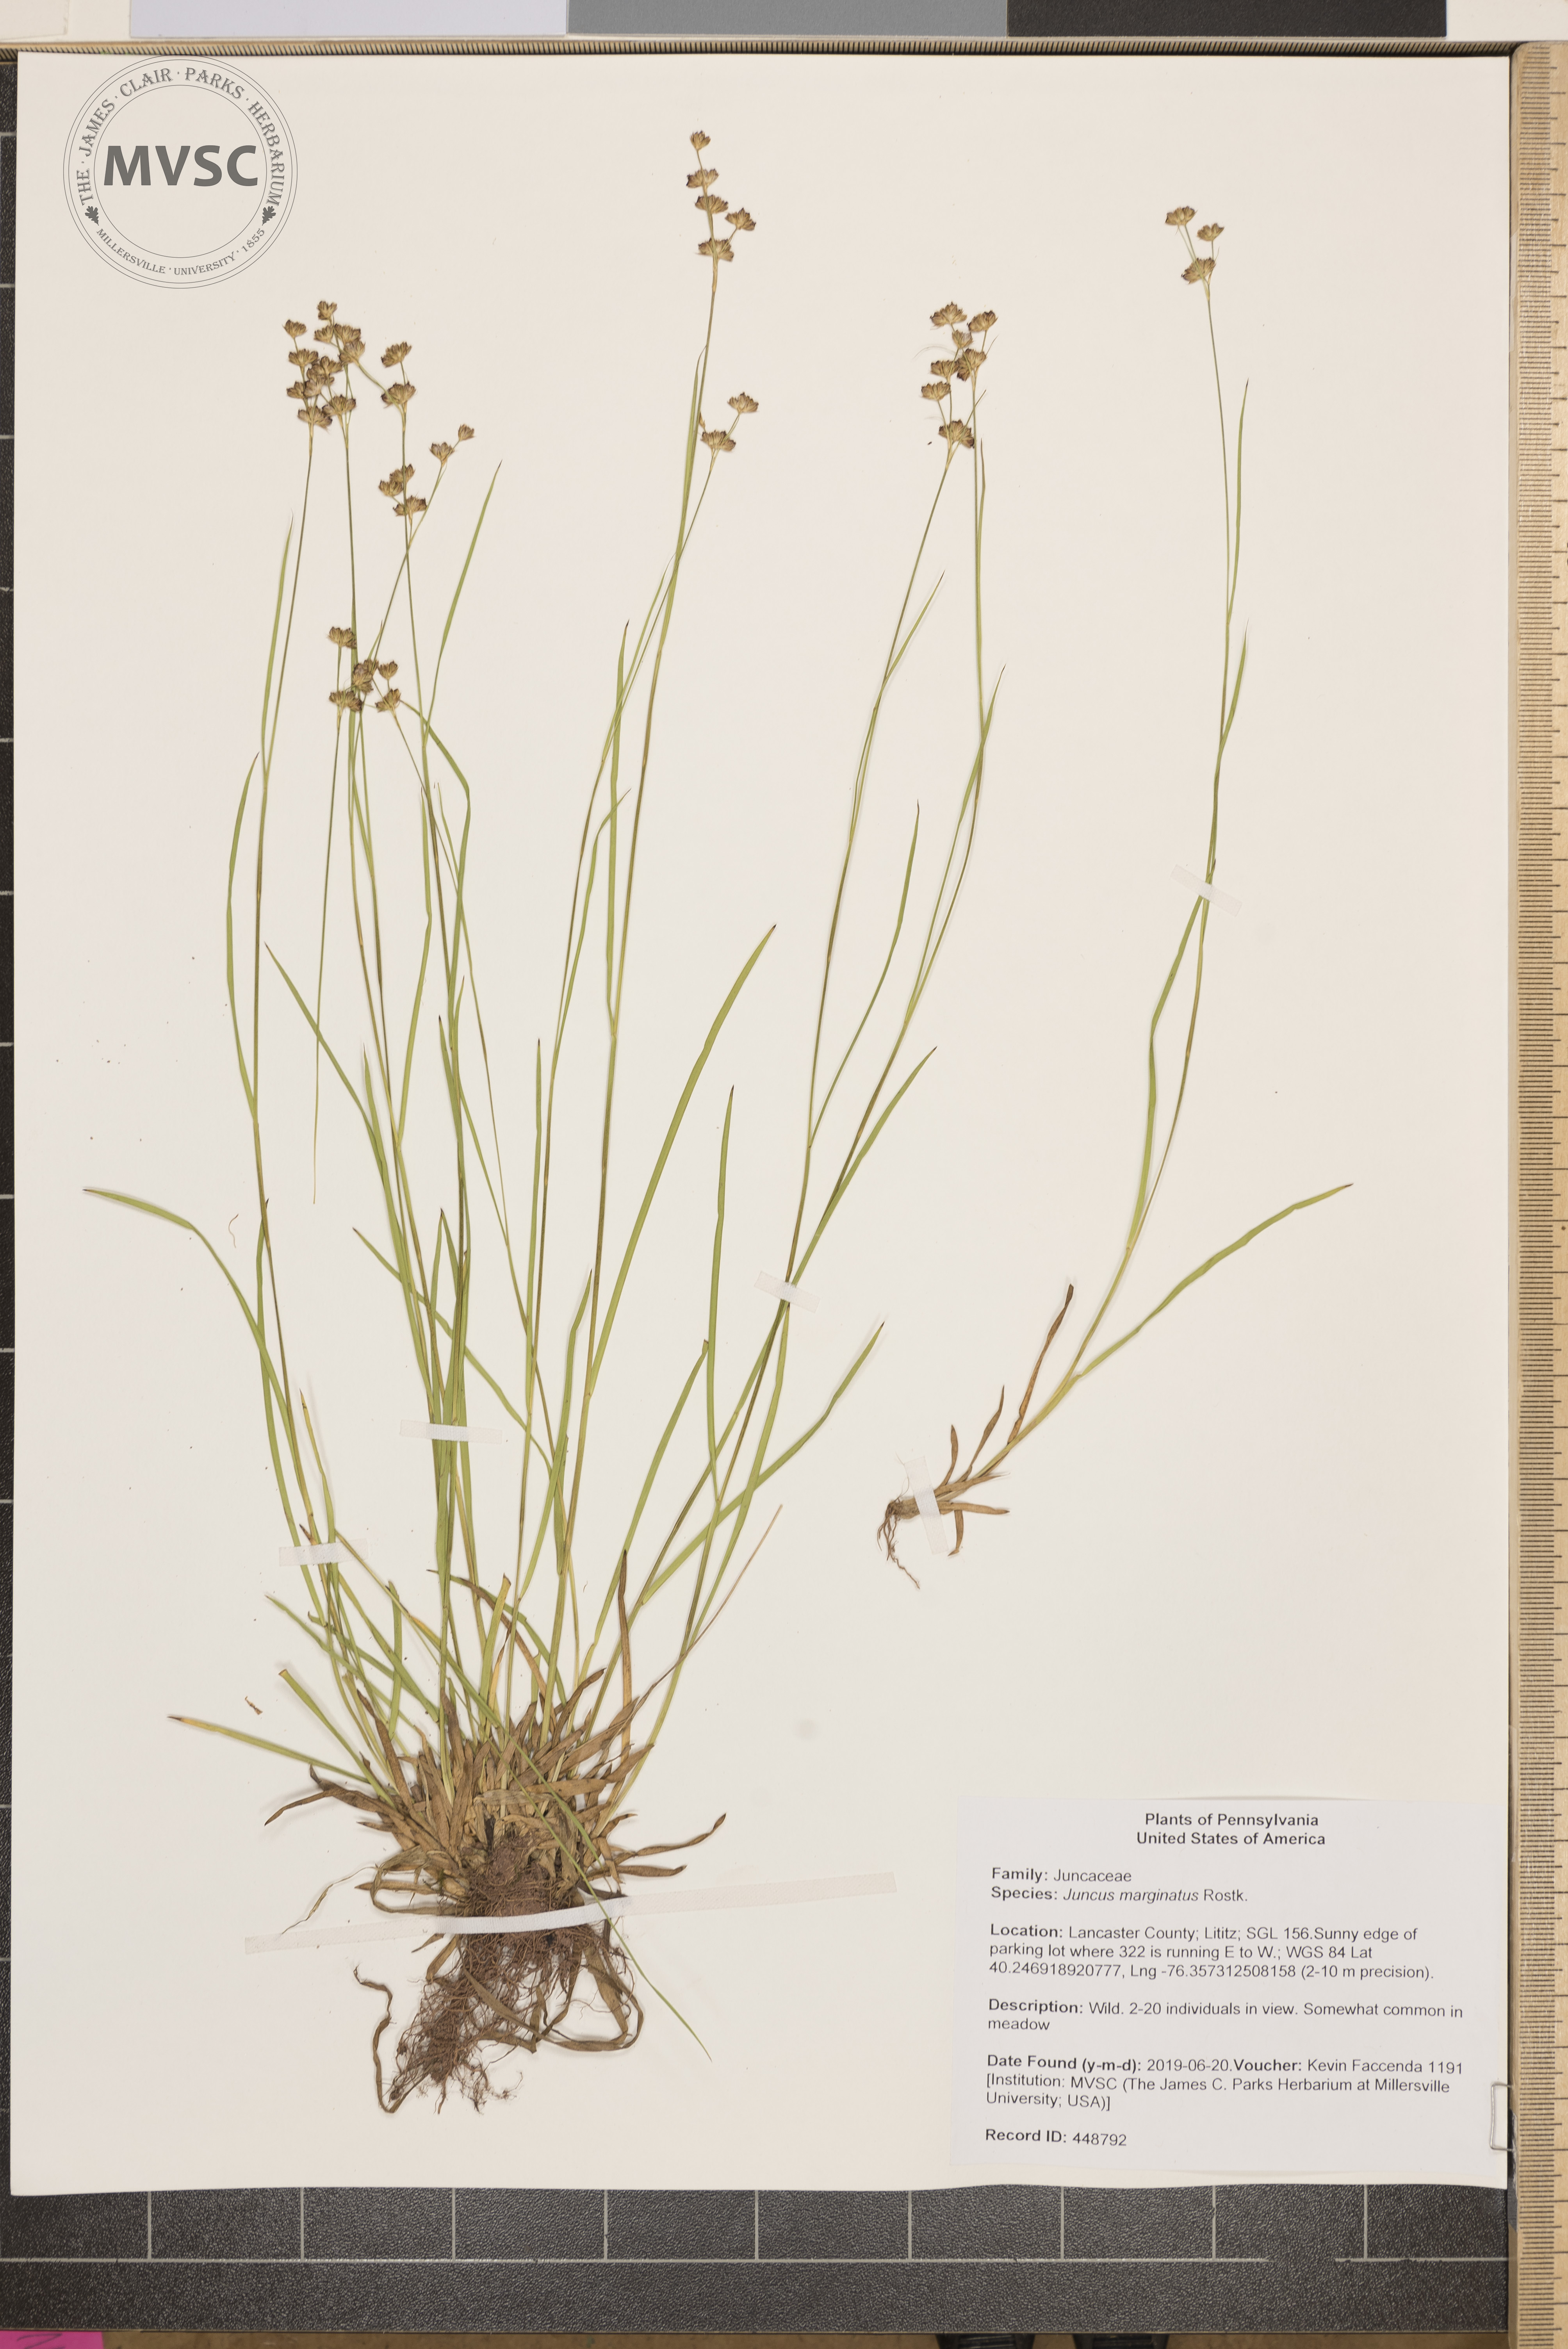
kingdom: Plantae
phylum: Tracheophyta
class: Liliopsida
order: Poales
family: Juncaceae
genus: Juncus
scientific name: Juncus marginatus
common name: Grass-leaf rush
